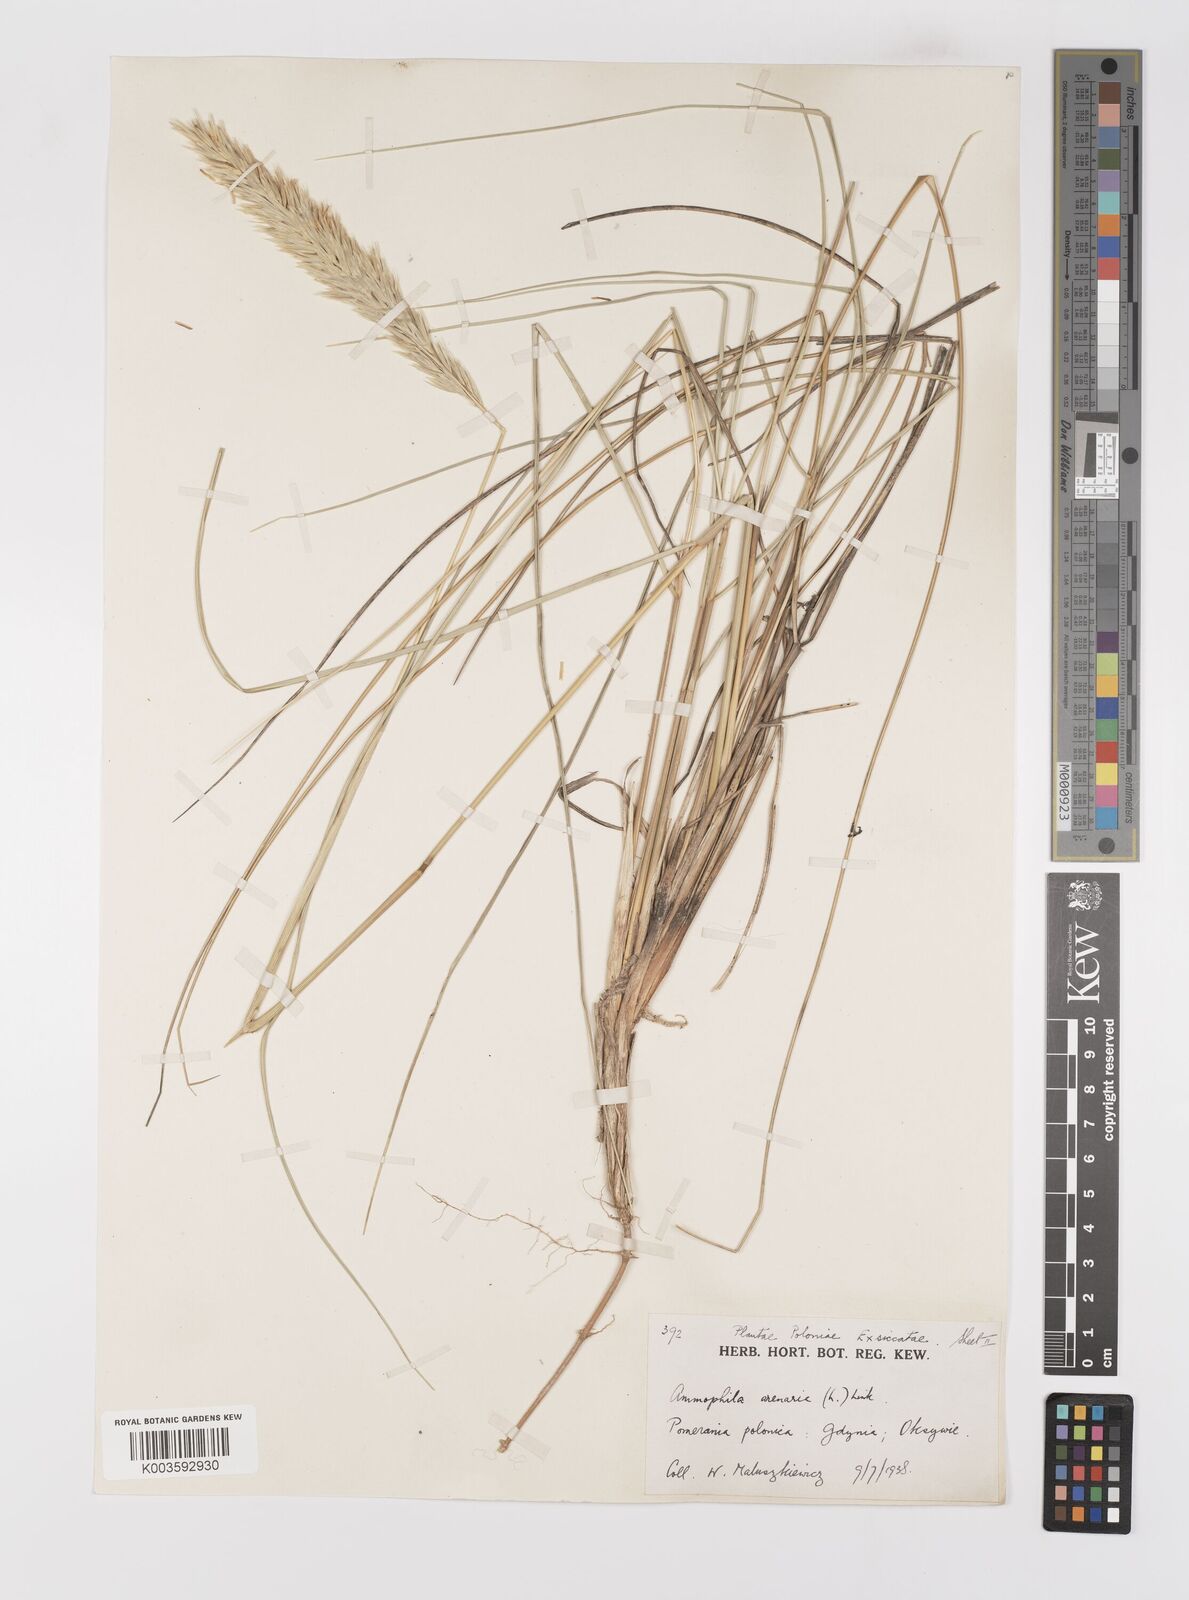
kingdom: Plantae
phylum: Tracheophyta
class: Liliopsida
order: Poales
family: Poaceae
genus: Calamagrostis
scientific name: Calamagrostis arenaria
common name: European beachgrass
